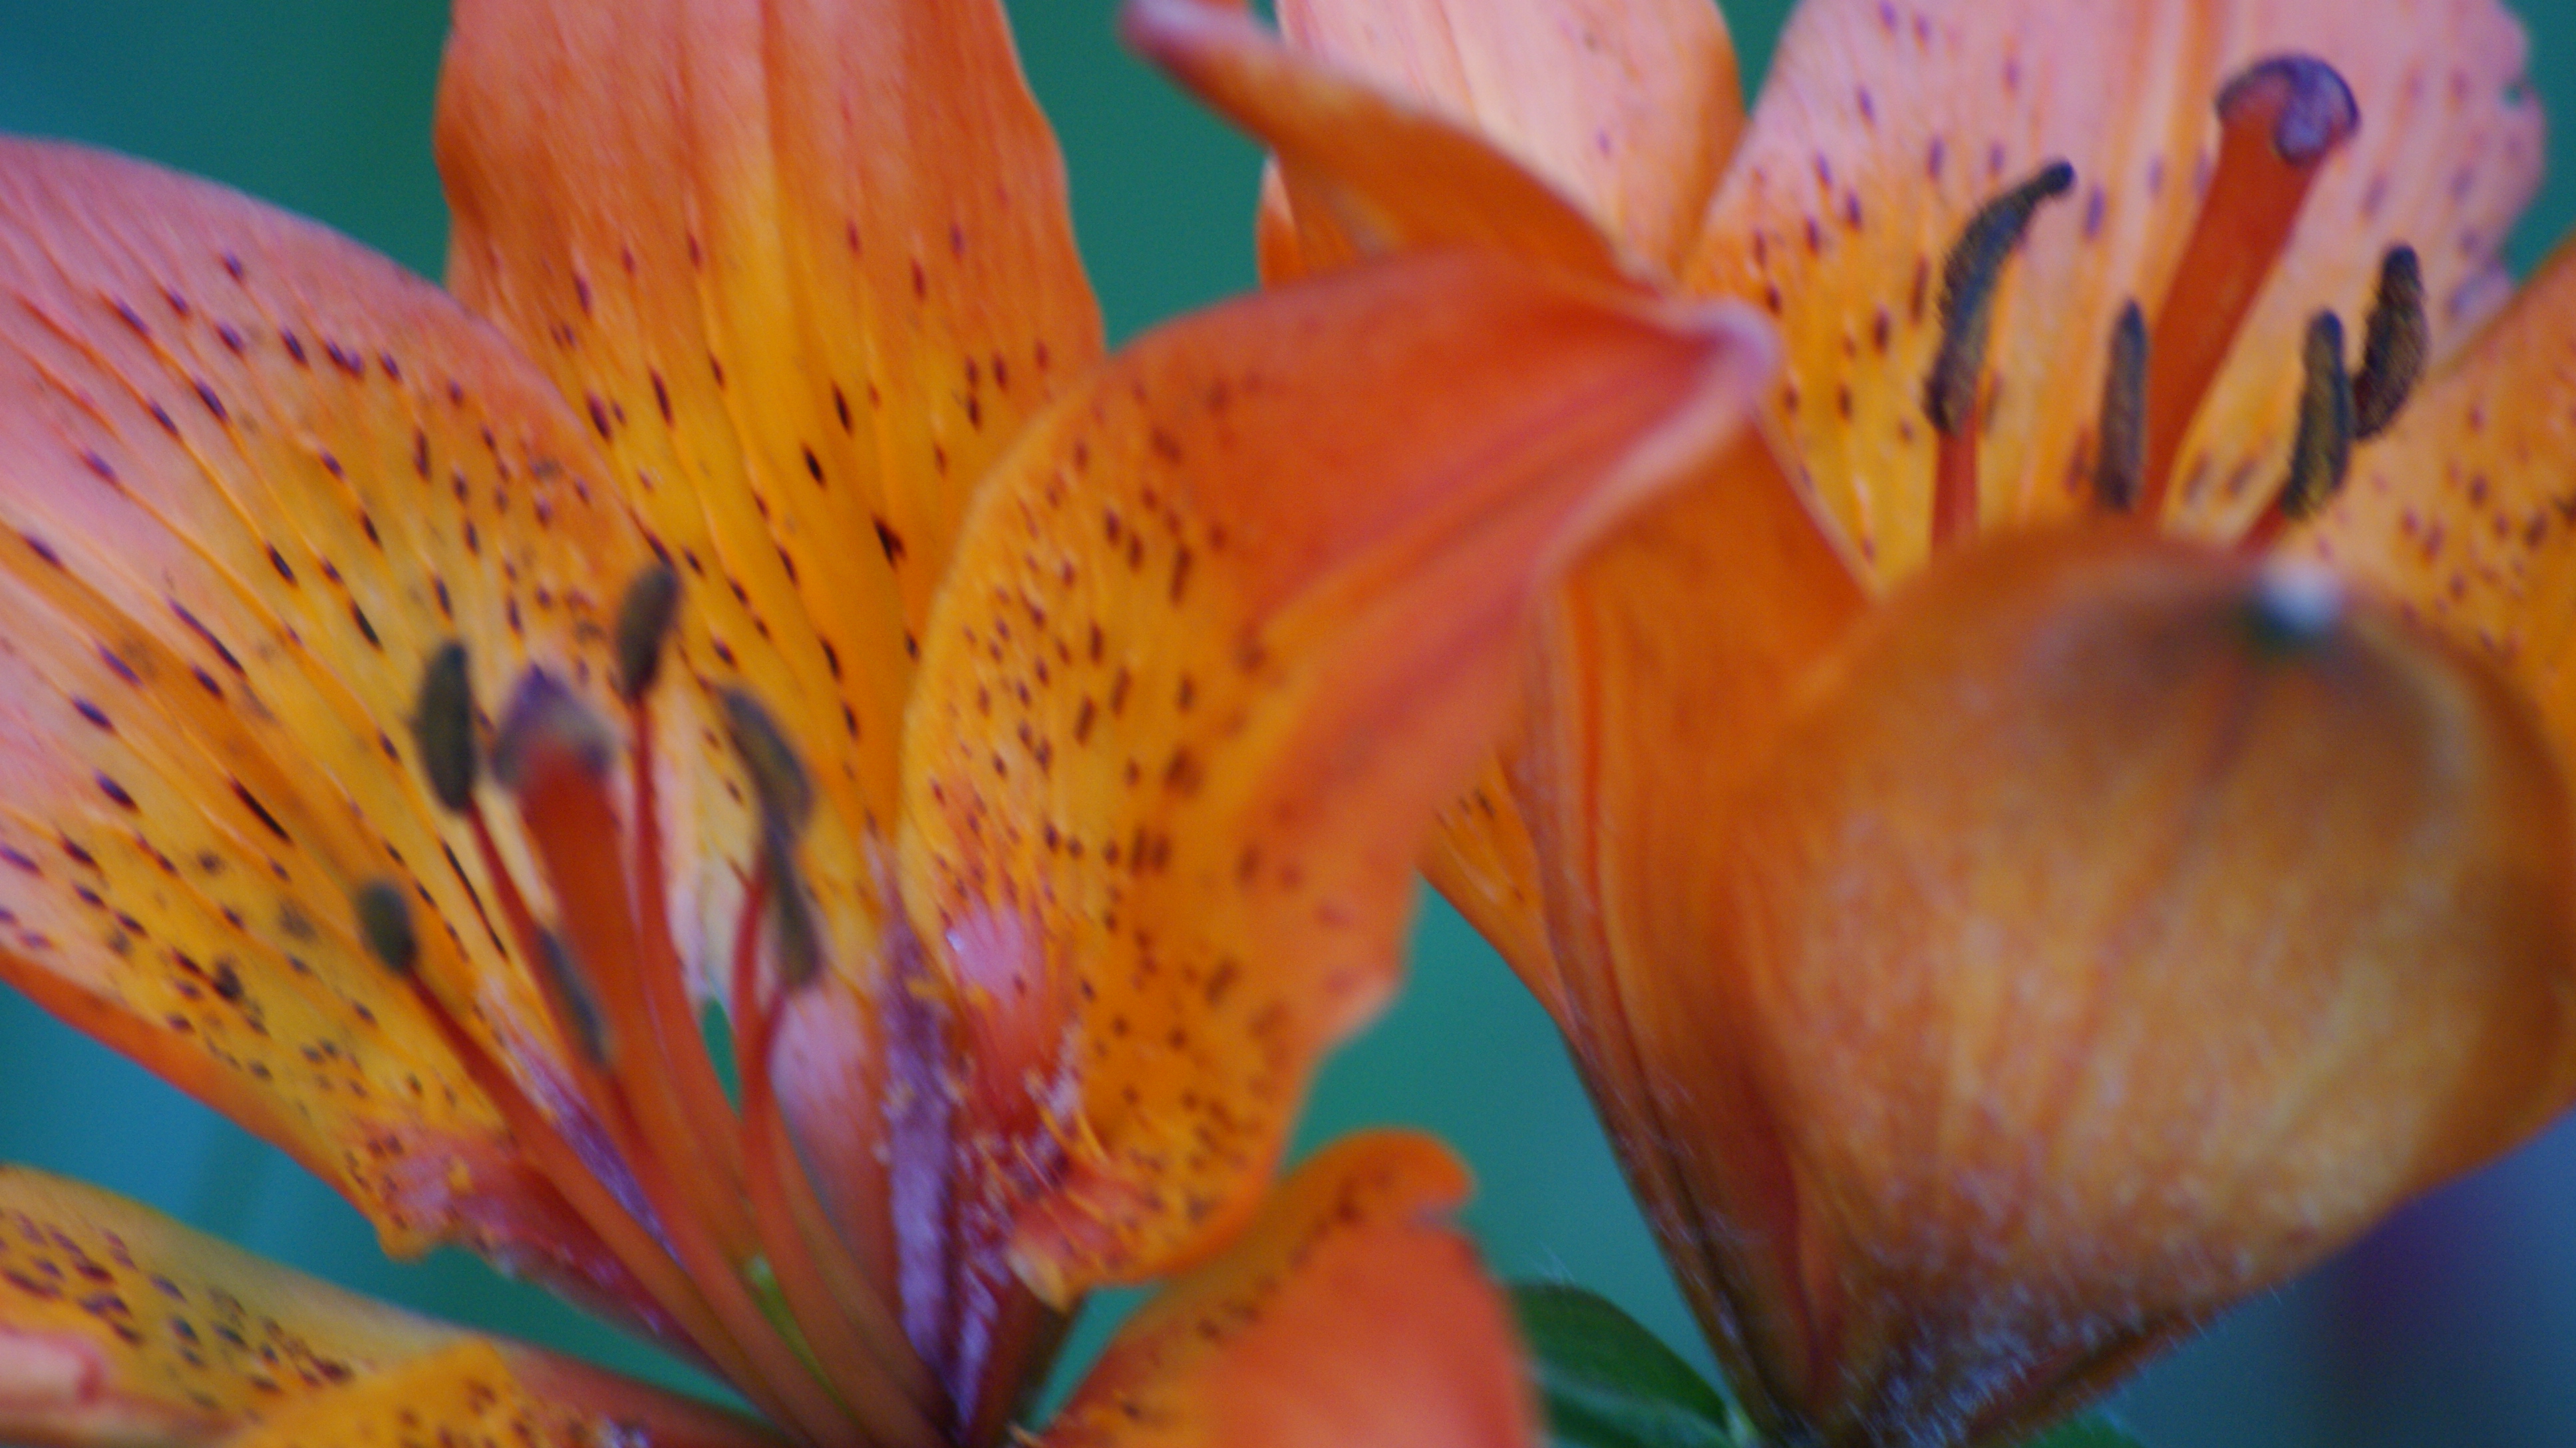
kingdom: Plantae
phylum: Tracheophyta
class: Liliopsida
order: Asparagales
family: Orchidaceae
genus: Platanthera
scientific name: Platanthera bifolia
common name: Lesser butterfly-orchid
